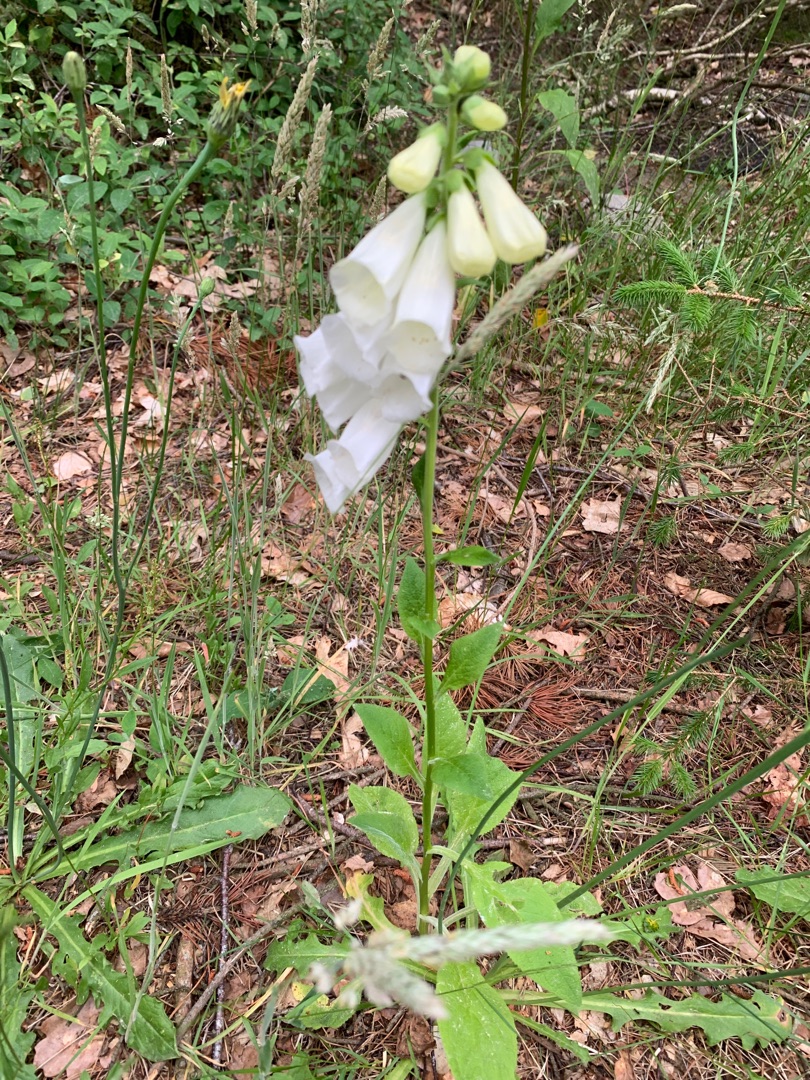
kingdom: Plantae
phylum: Tracheophyta
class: Magnoliopsida
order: Lamiales
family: Plantaginaceae
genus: Digitalis
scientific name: Digitalis purpurea
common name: Almindelig fingerbøl
